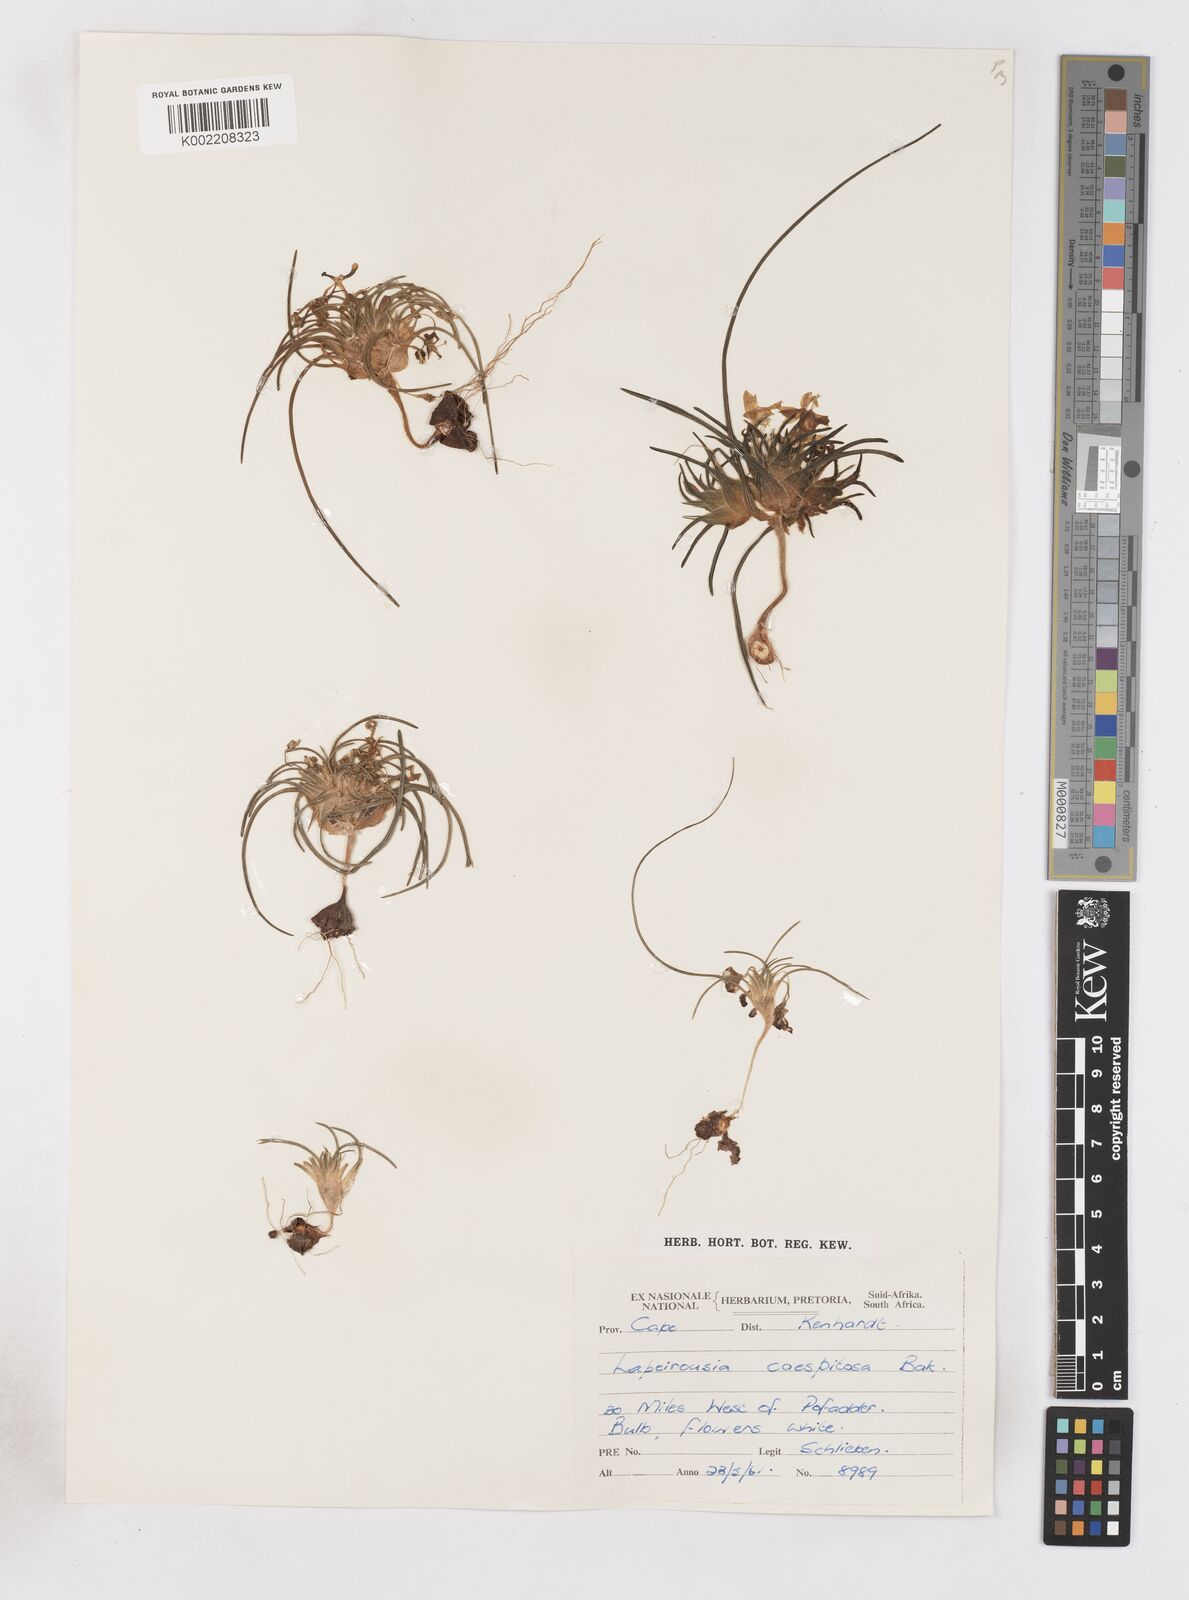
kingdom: Plantae
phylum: Tracheophyta
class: Liliopsida
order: Asparagales
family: Iridaceae
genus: Lapeirousia
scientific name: Lapeirousia plicata
